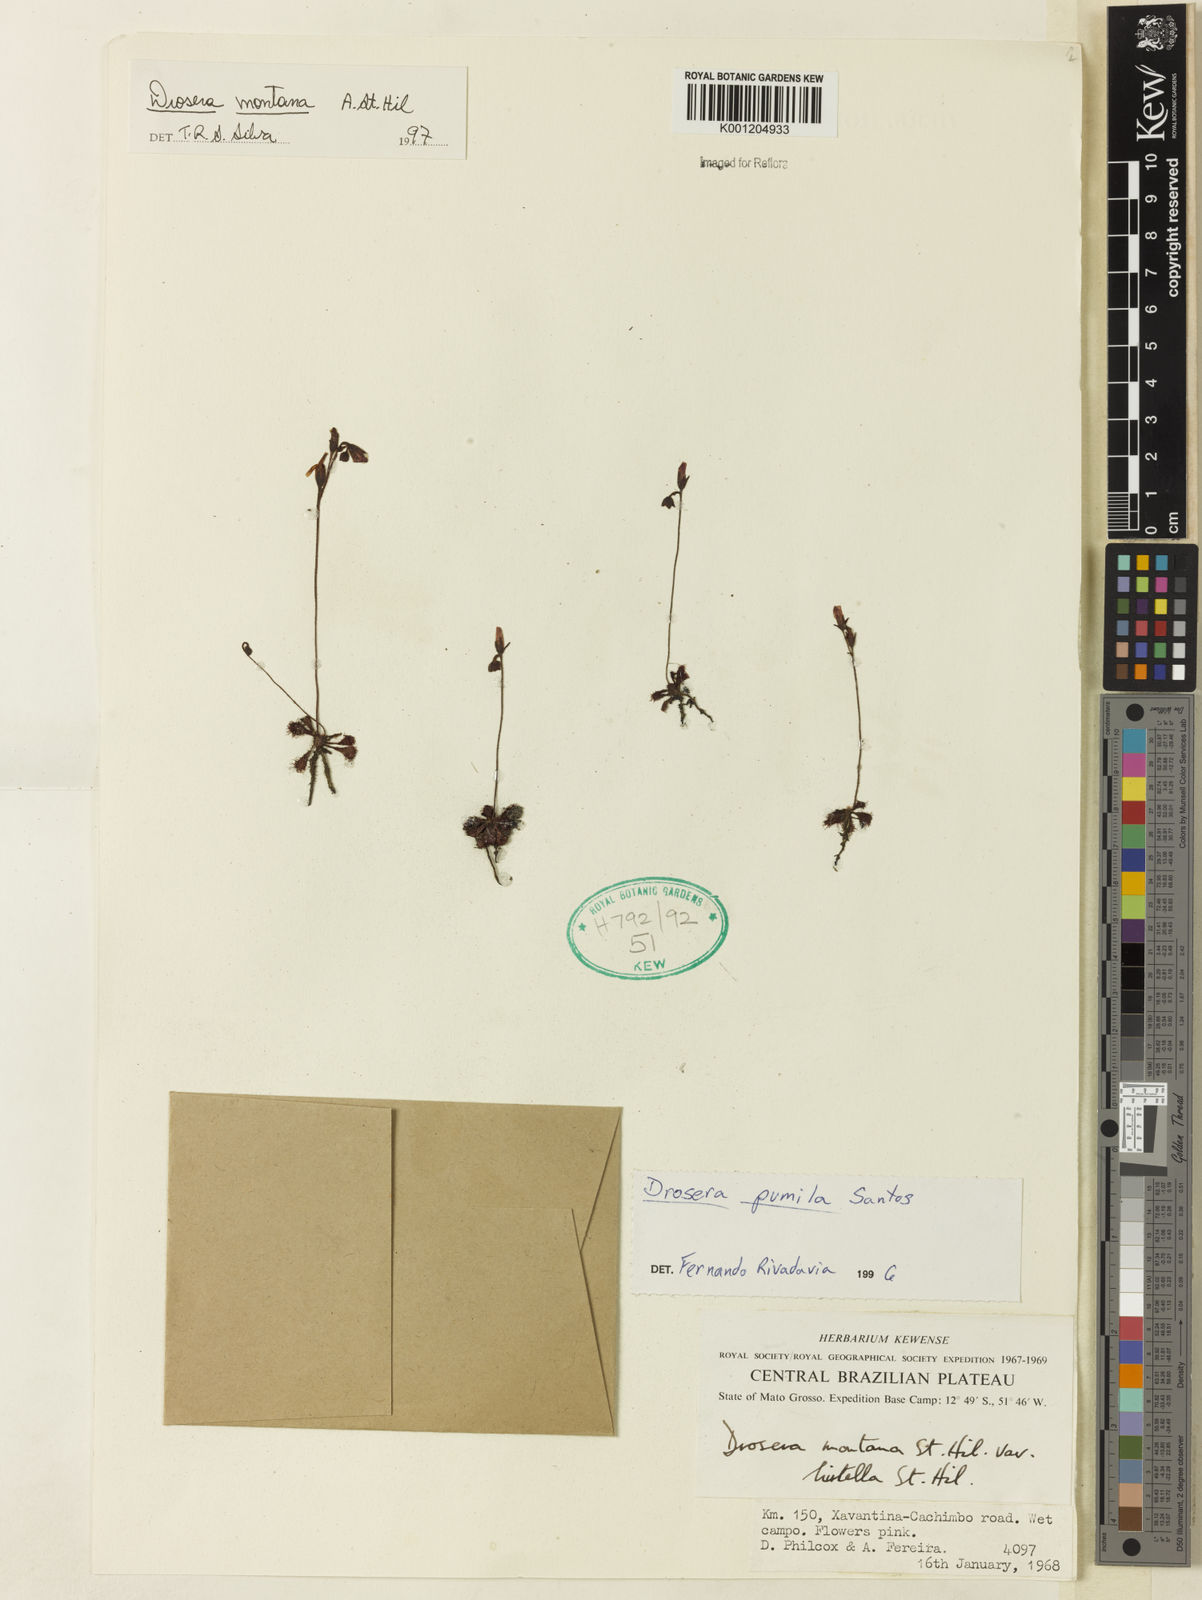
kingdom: Plantae
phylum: Tracheophyta
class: Magnoliopsida
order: Caryophyllales
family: Droseraceae
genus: Drosera
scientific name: Drosera montana
